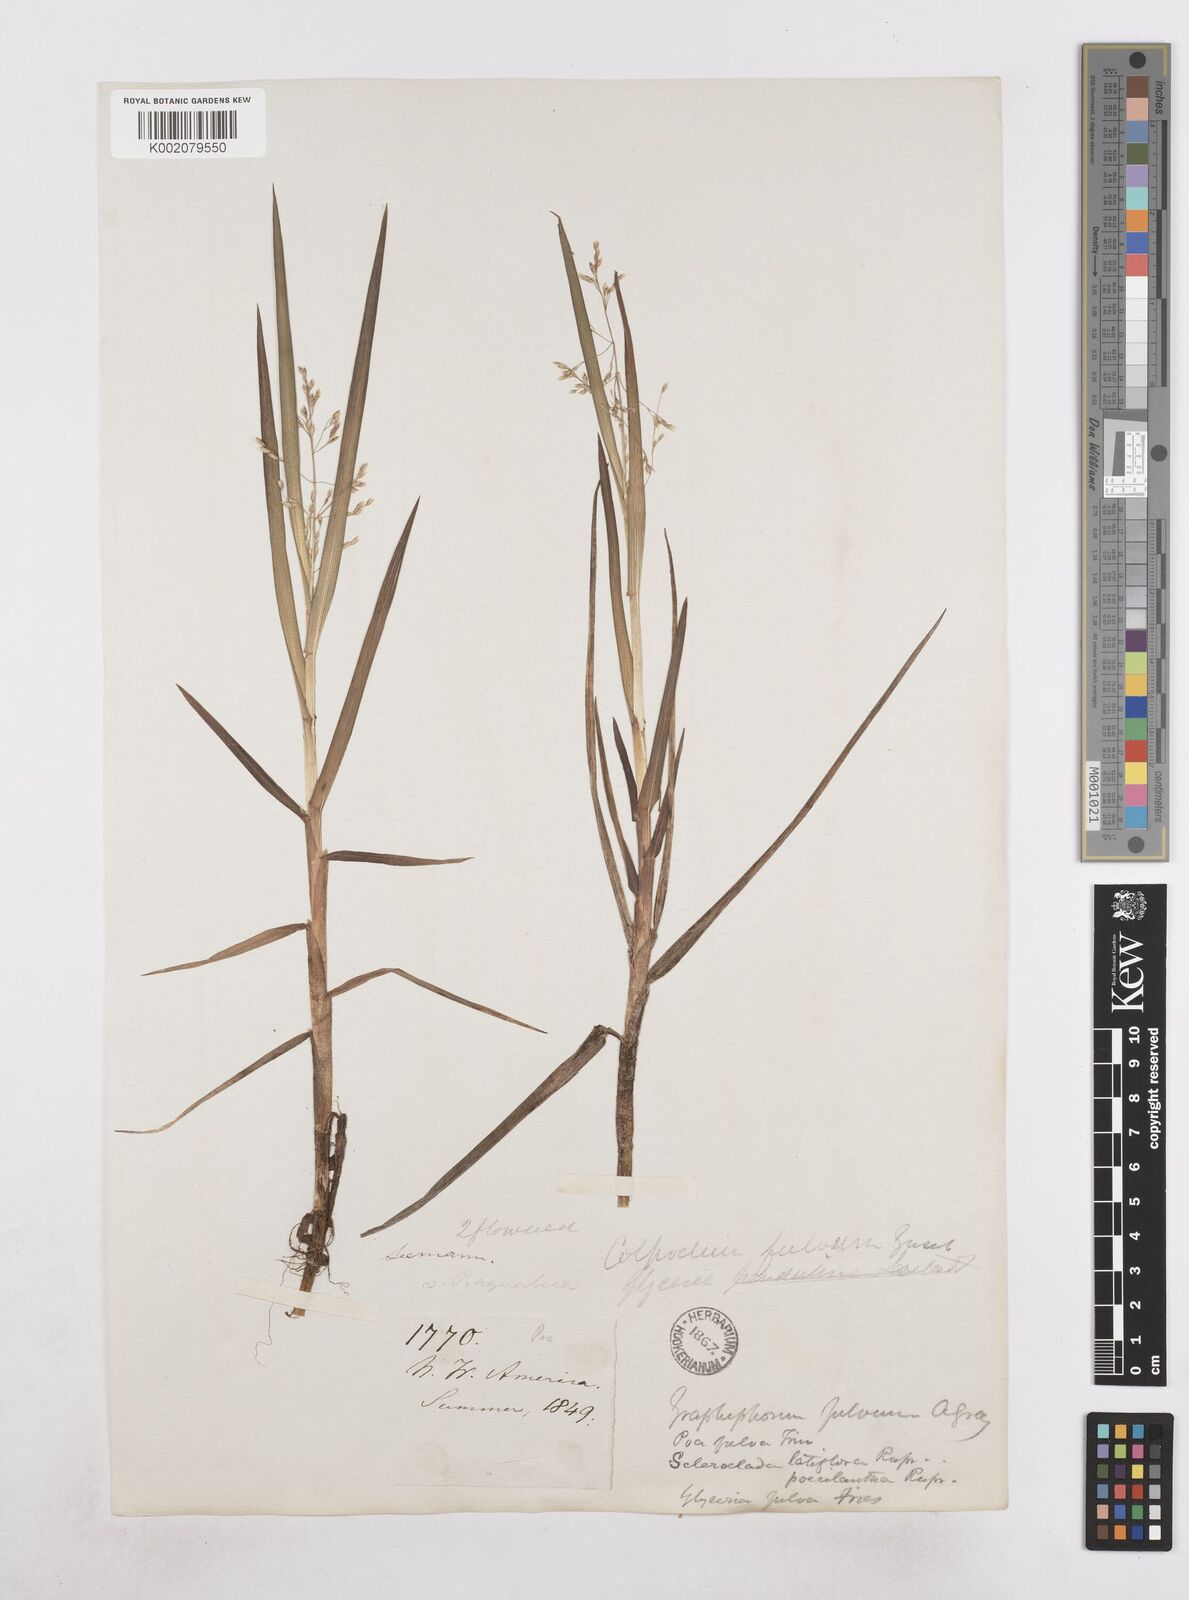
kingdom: Plantae
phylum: Tracheophyta
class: Liliopsida
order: Poales
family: Poaceae
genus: Dupontia
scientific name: Dupontia fulva
